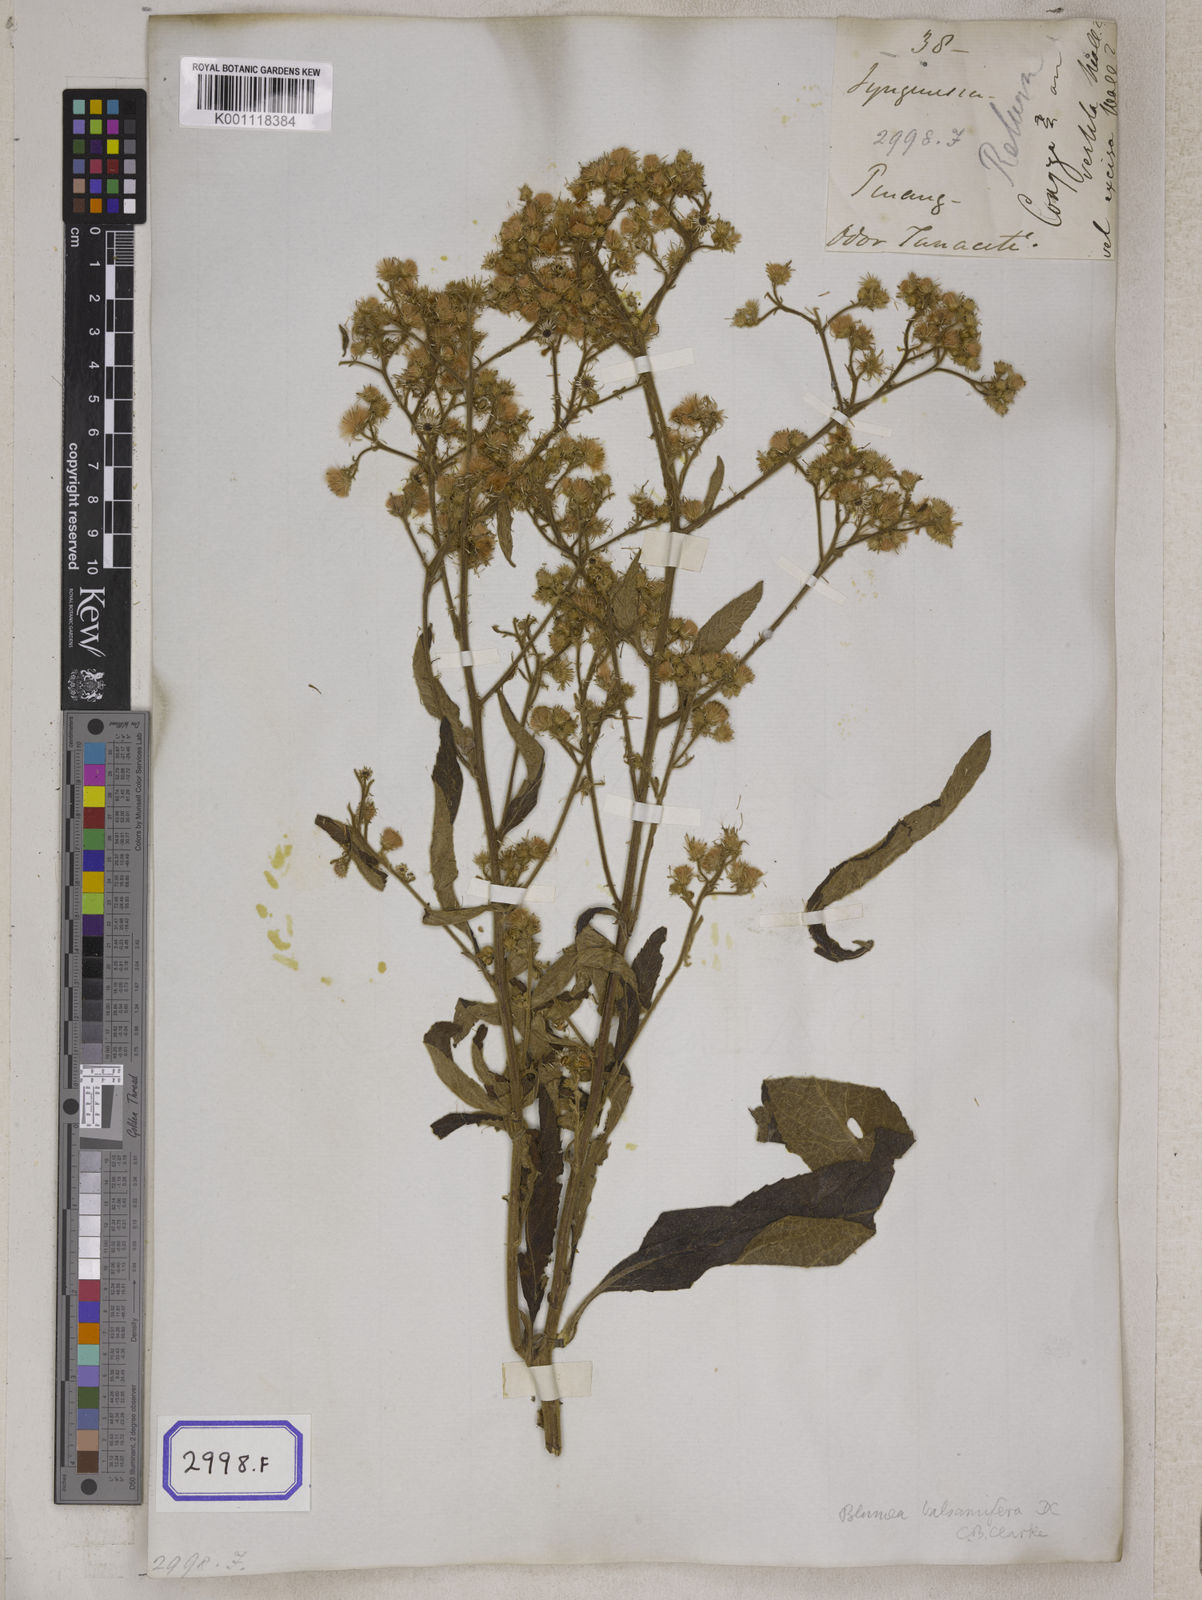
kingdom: Plantae
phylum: Tracheophyta
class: Magnoliopsida
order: Asterales
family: Asteraceae
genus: Blumea
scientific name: Blumea balsamifera
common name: Ngai camphor
